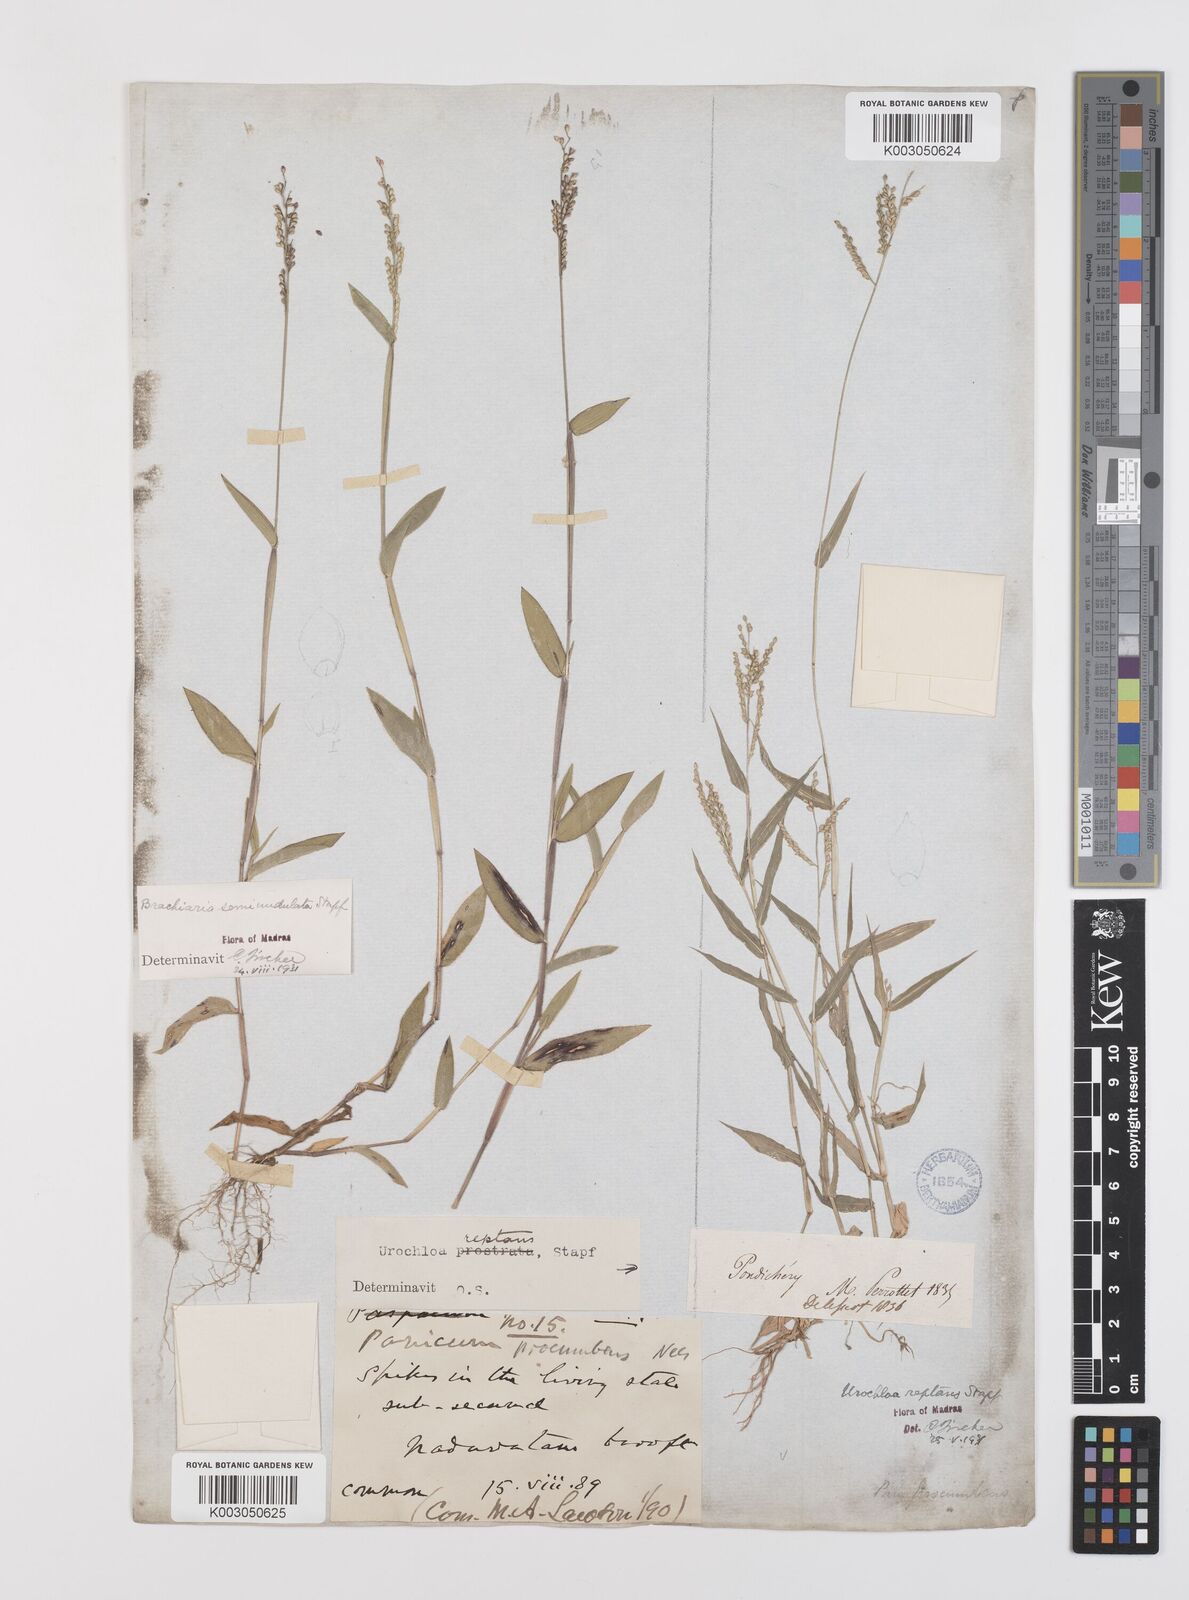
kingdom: Plantae
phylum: Tracheophyta
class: Liliopsida
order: Poales
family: Poaceae
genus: Urochloa
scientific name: Urochloa semiundulata
